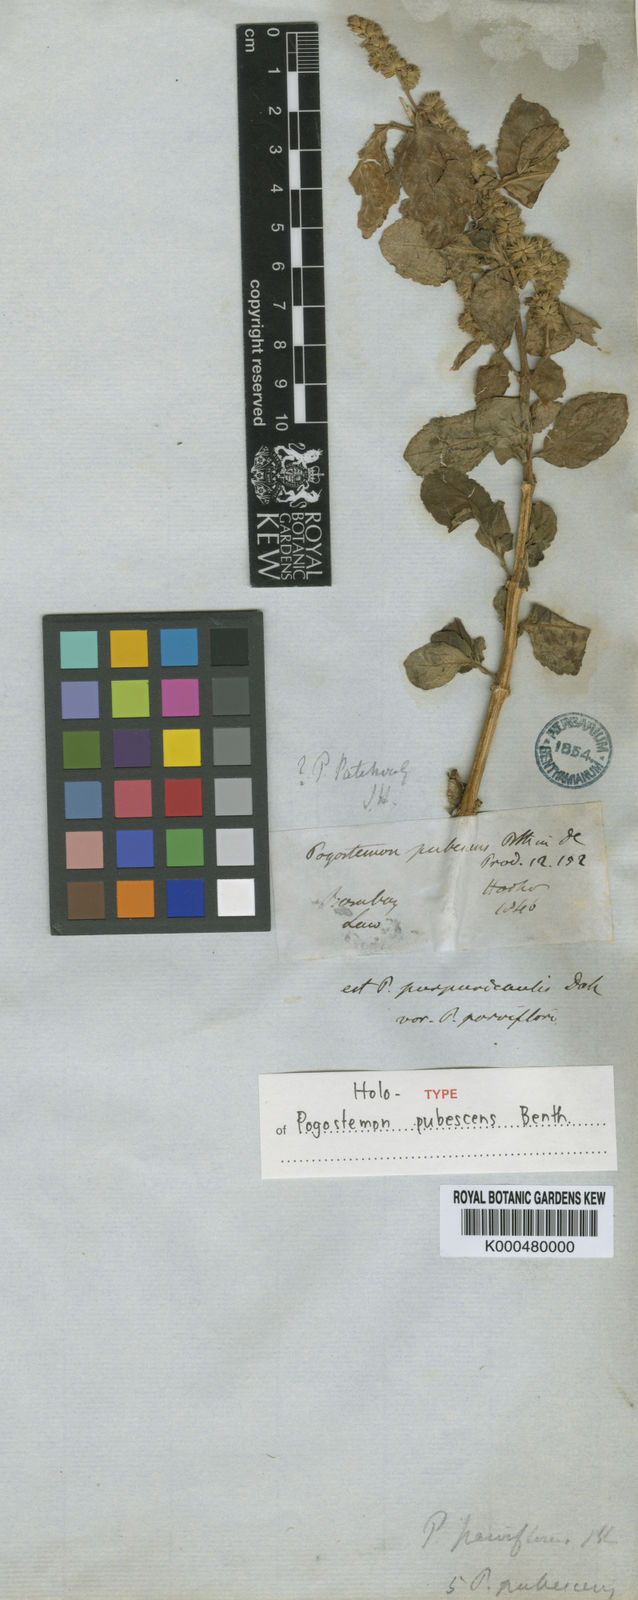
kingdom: Plantae
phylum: Tracheophyta
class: Magnoliopsida
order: Lamiales
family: Lamiaceae
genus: Pogostemon
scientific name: Pogostemon pubescens
